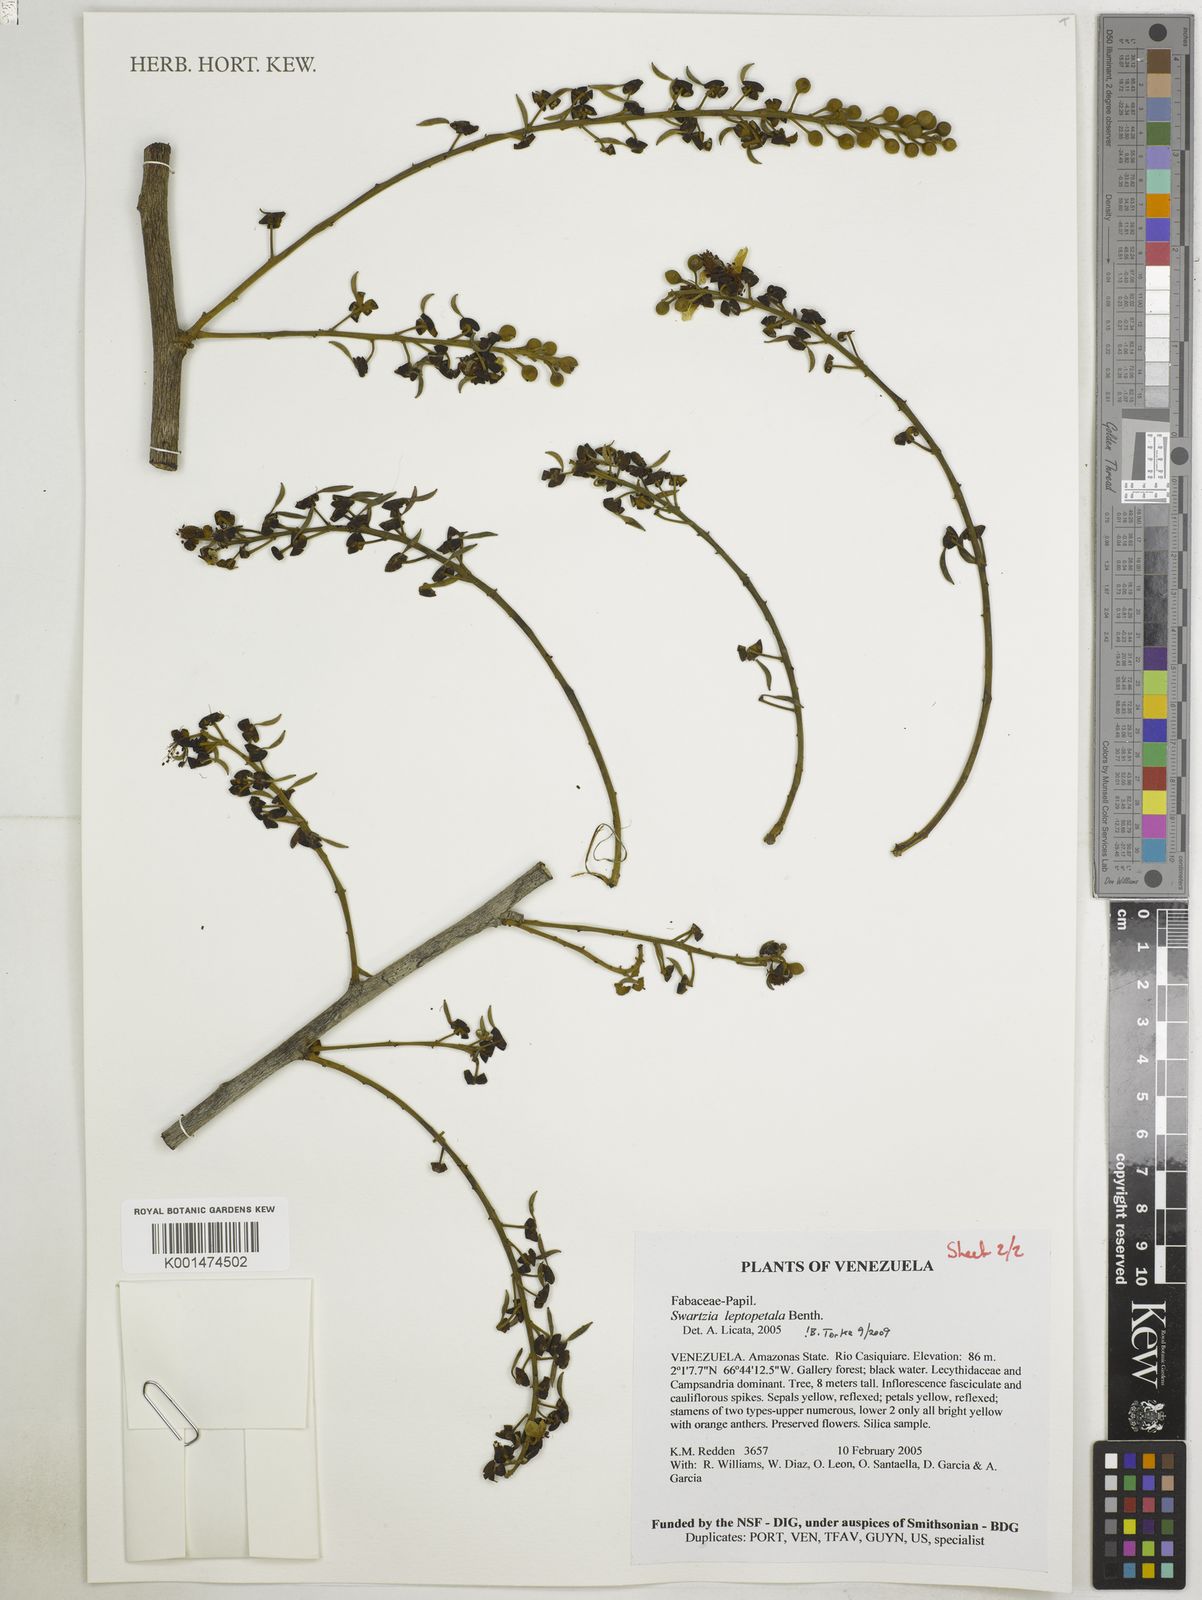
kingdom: Plantae
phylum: Tracheophyta
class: Magnoliopsida
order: Fabales
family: Fabaceae
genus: Swartzia
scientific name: Swartzia leptopetala
